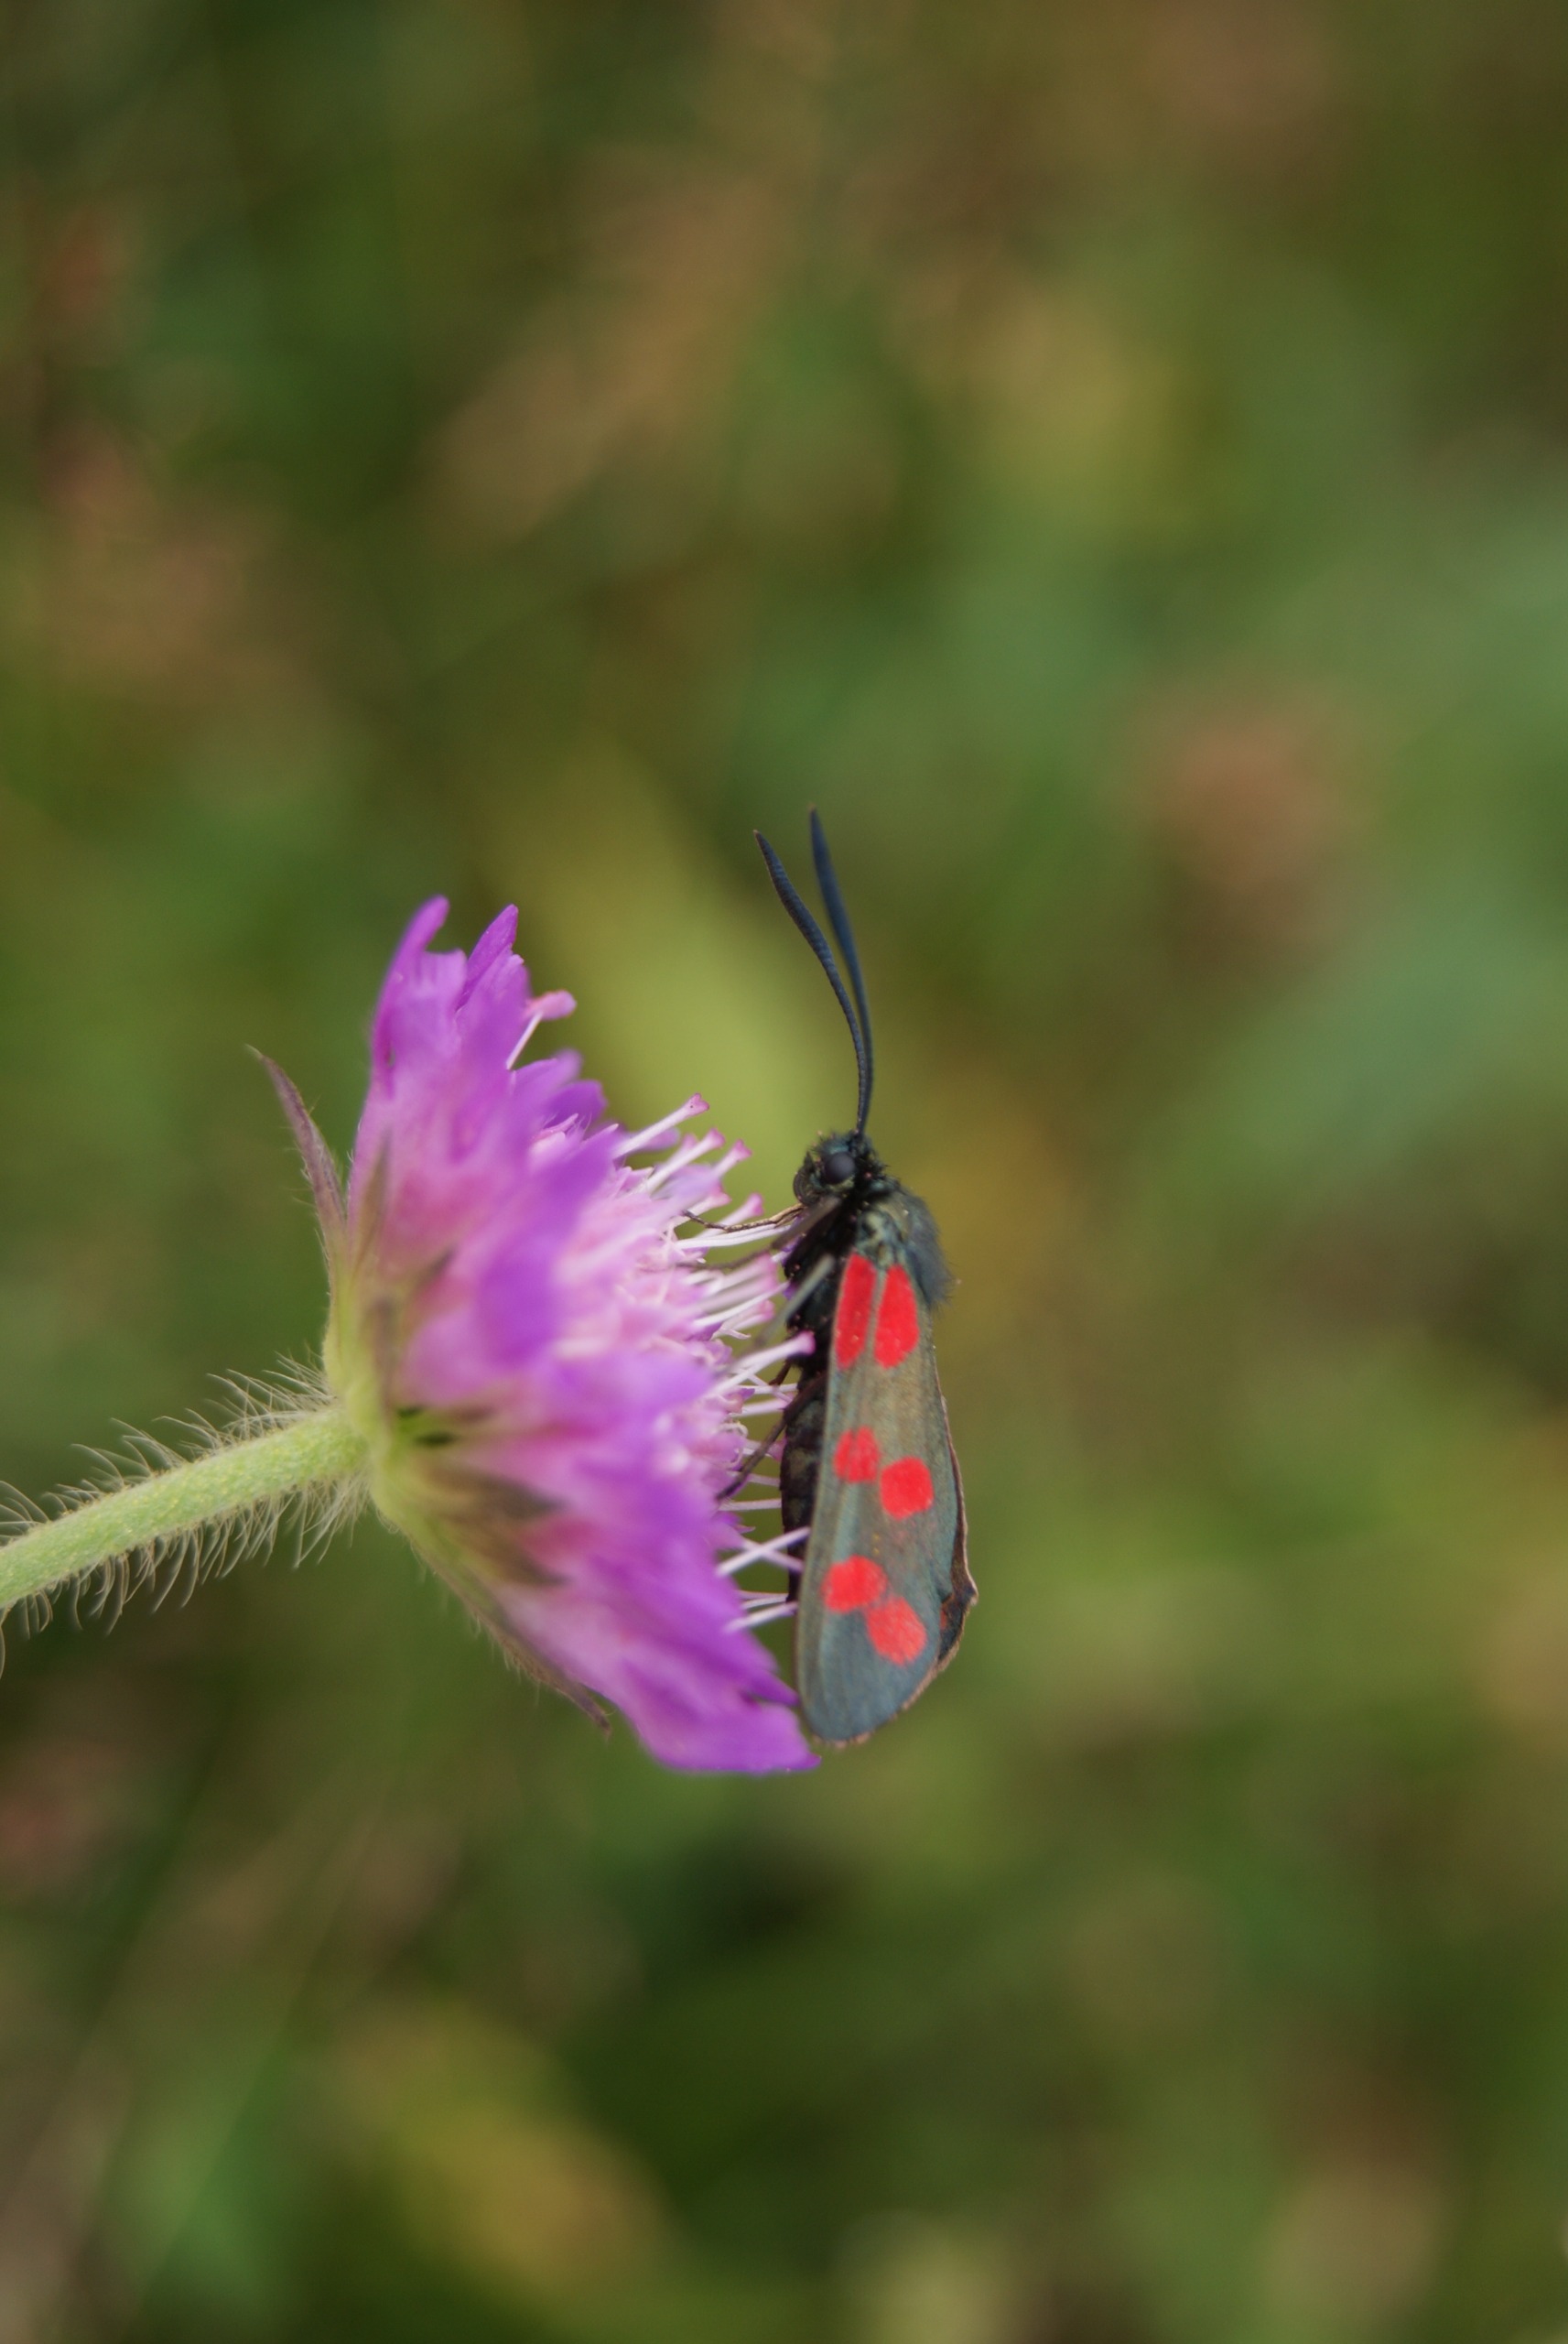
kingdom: Animalia
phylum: Arthropoda
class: Insecta
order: Lepidoptera
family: Zygaenidae
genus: Zygaena
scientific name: Zygaena filipendulae
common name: Seksplettet køllesværmer
